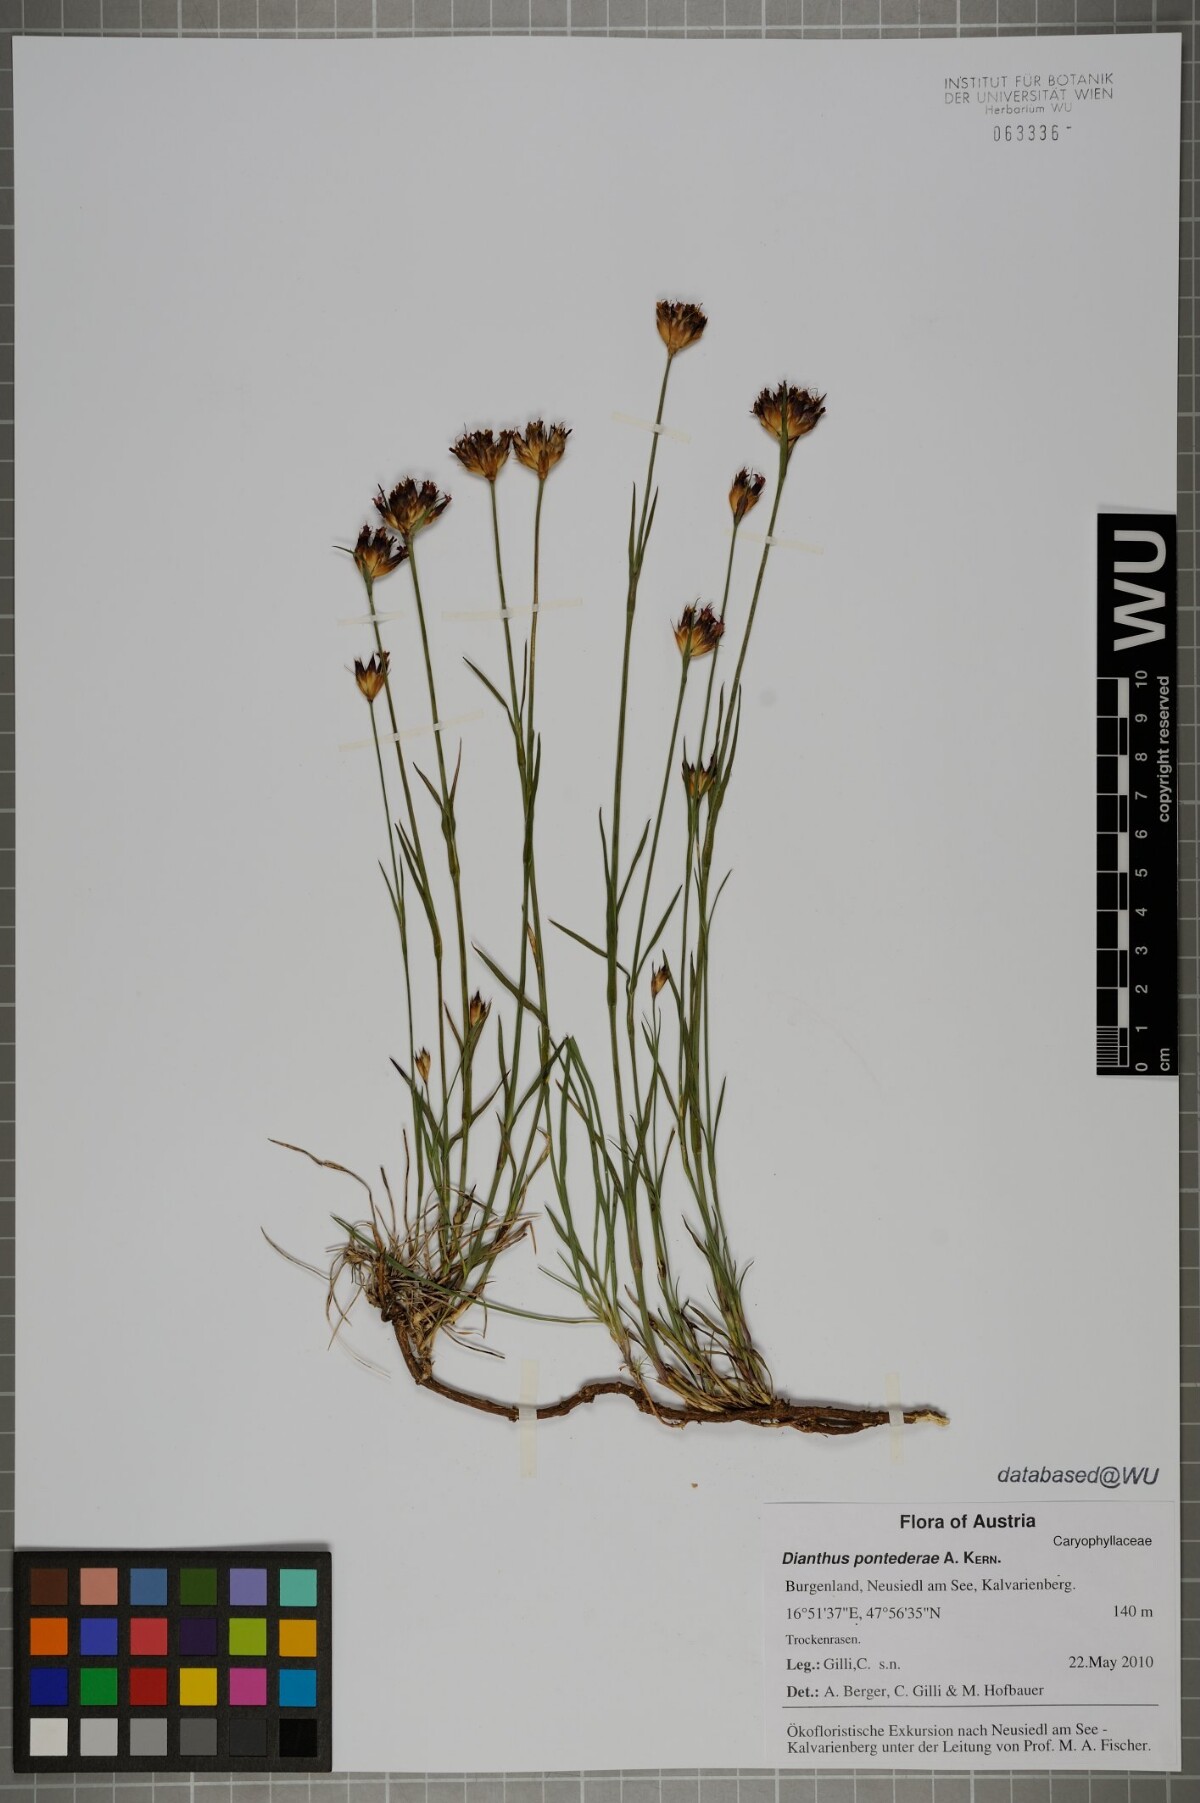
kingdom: Plantae
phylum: Tracheophyta
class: Magnoliopsida
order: Caryophyllales
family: Caryophyllaceae
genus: Dianthus
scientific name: Dianthus pontederae
